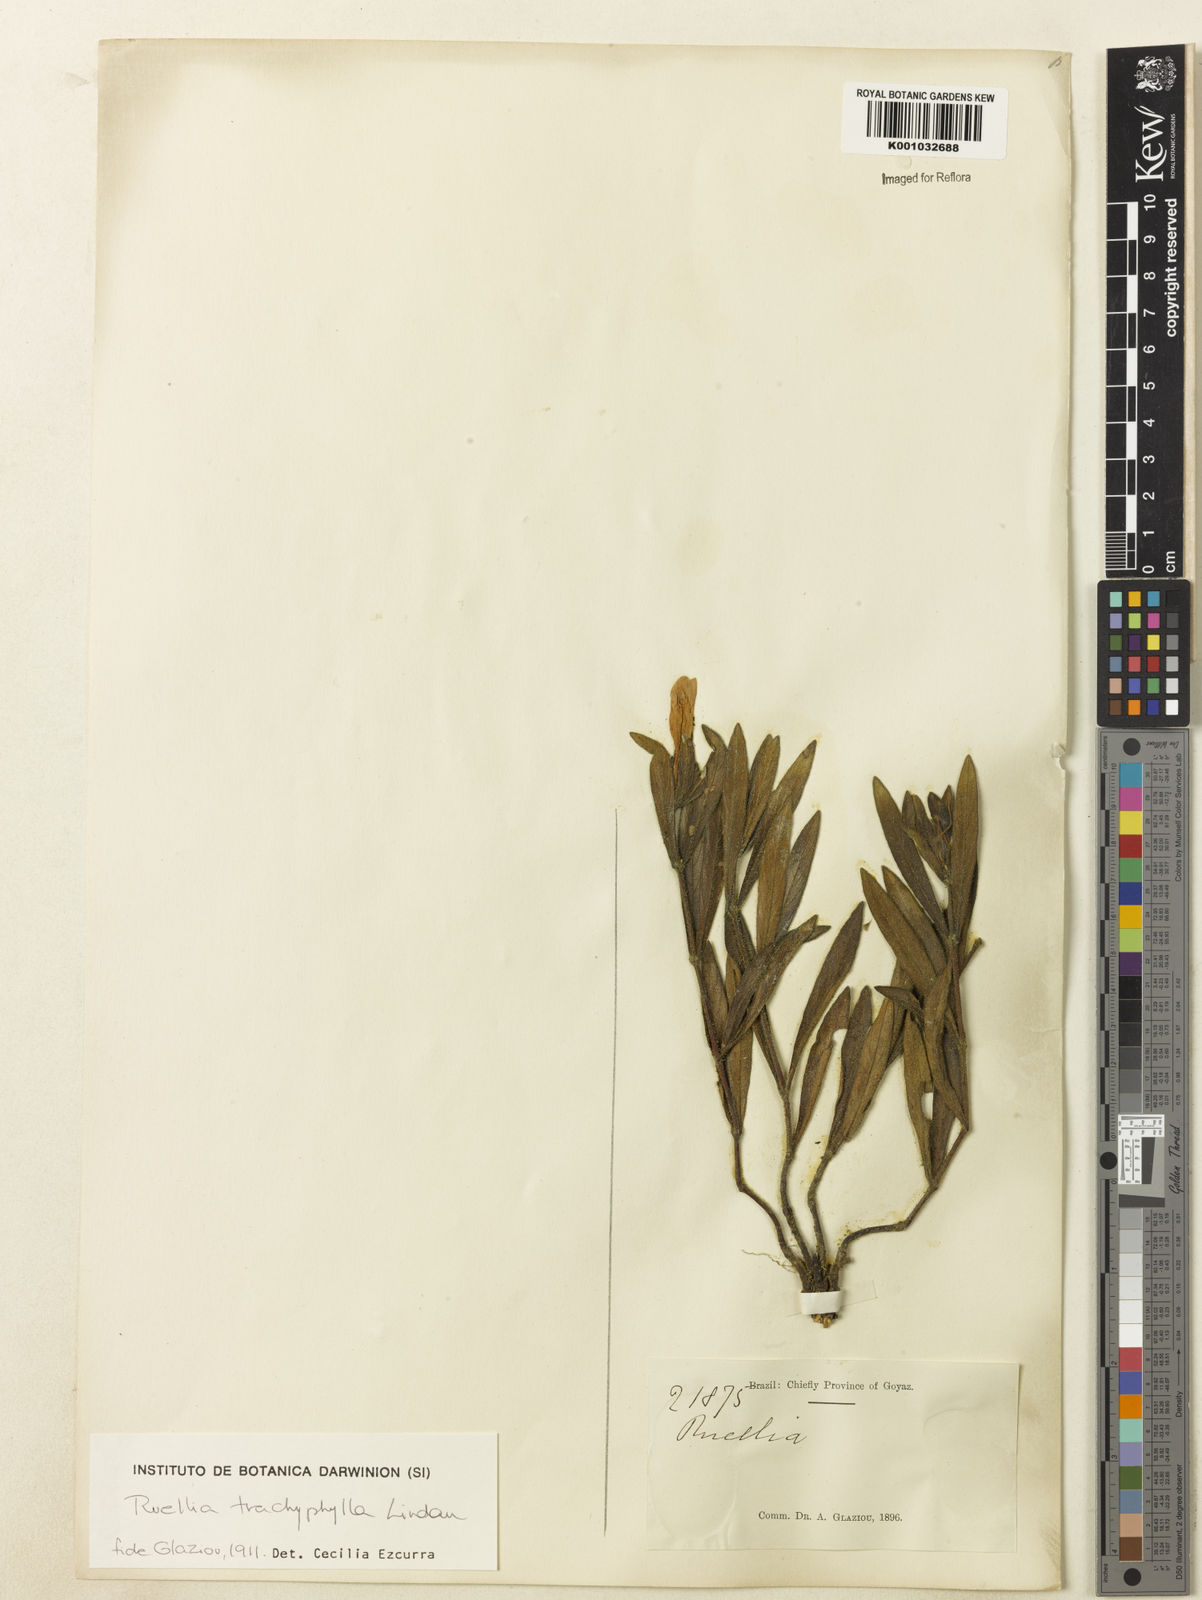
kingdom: Plantae
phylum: Tracheophyta
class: Magnoliopsida
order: Lamiales
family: Acanthaceae
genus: Ruellia
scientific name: Ruellia trachyphylla
